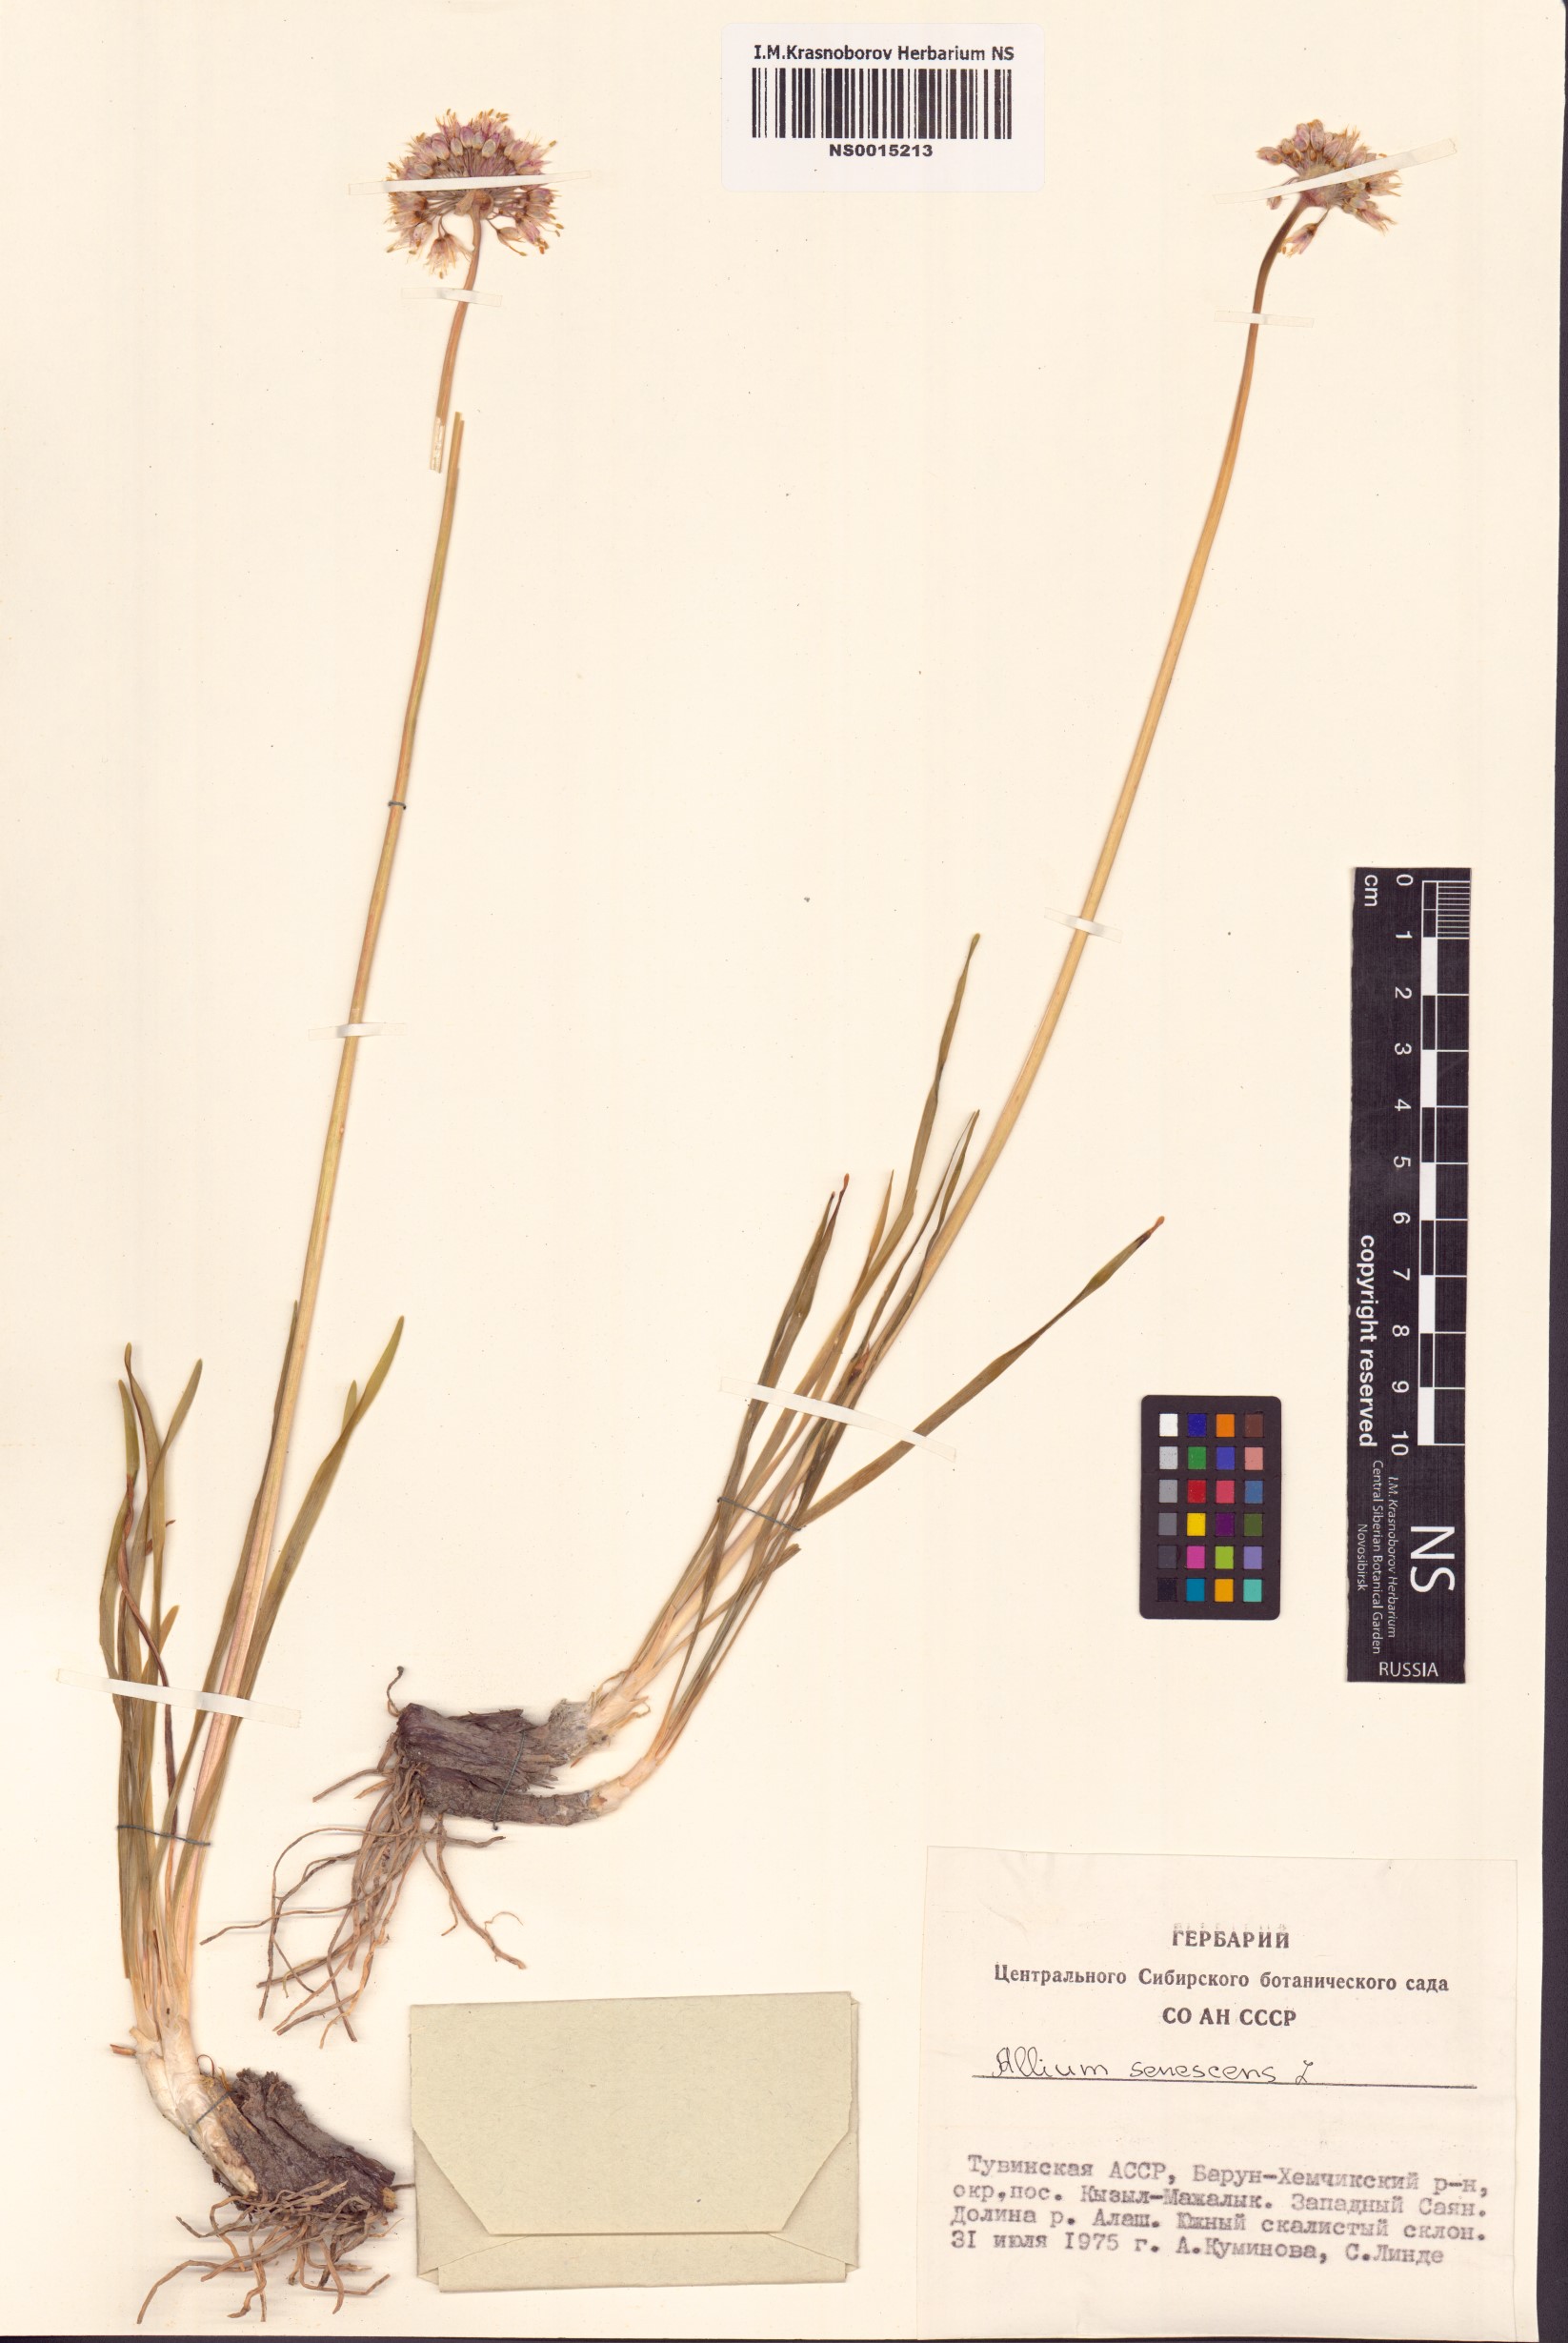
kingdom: Plantae
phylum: Tracheophyta
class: Liliopsida
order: Asparagales
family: Amaryllidaceae
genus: Allium
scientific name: Allium senescens
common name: German garlic
